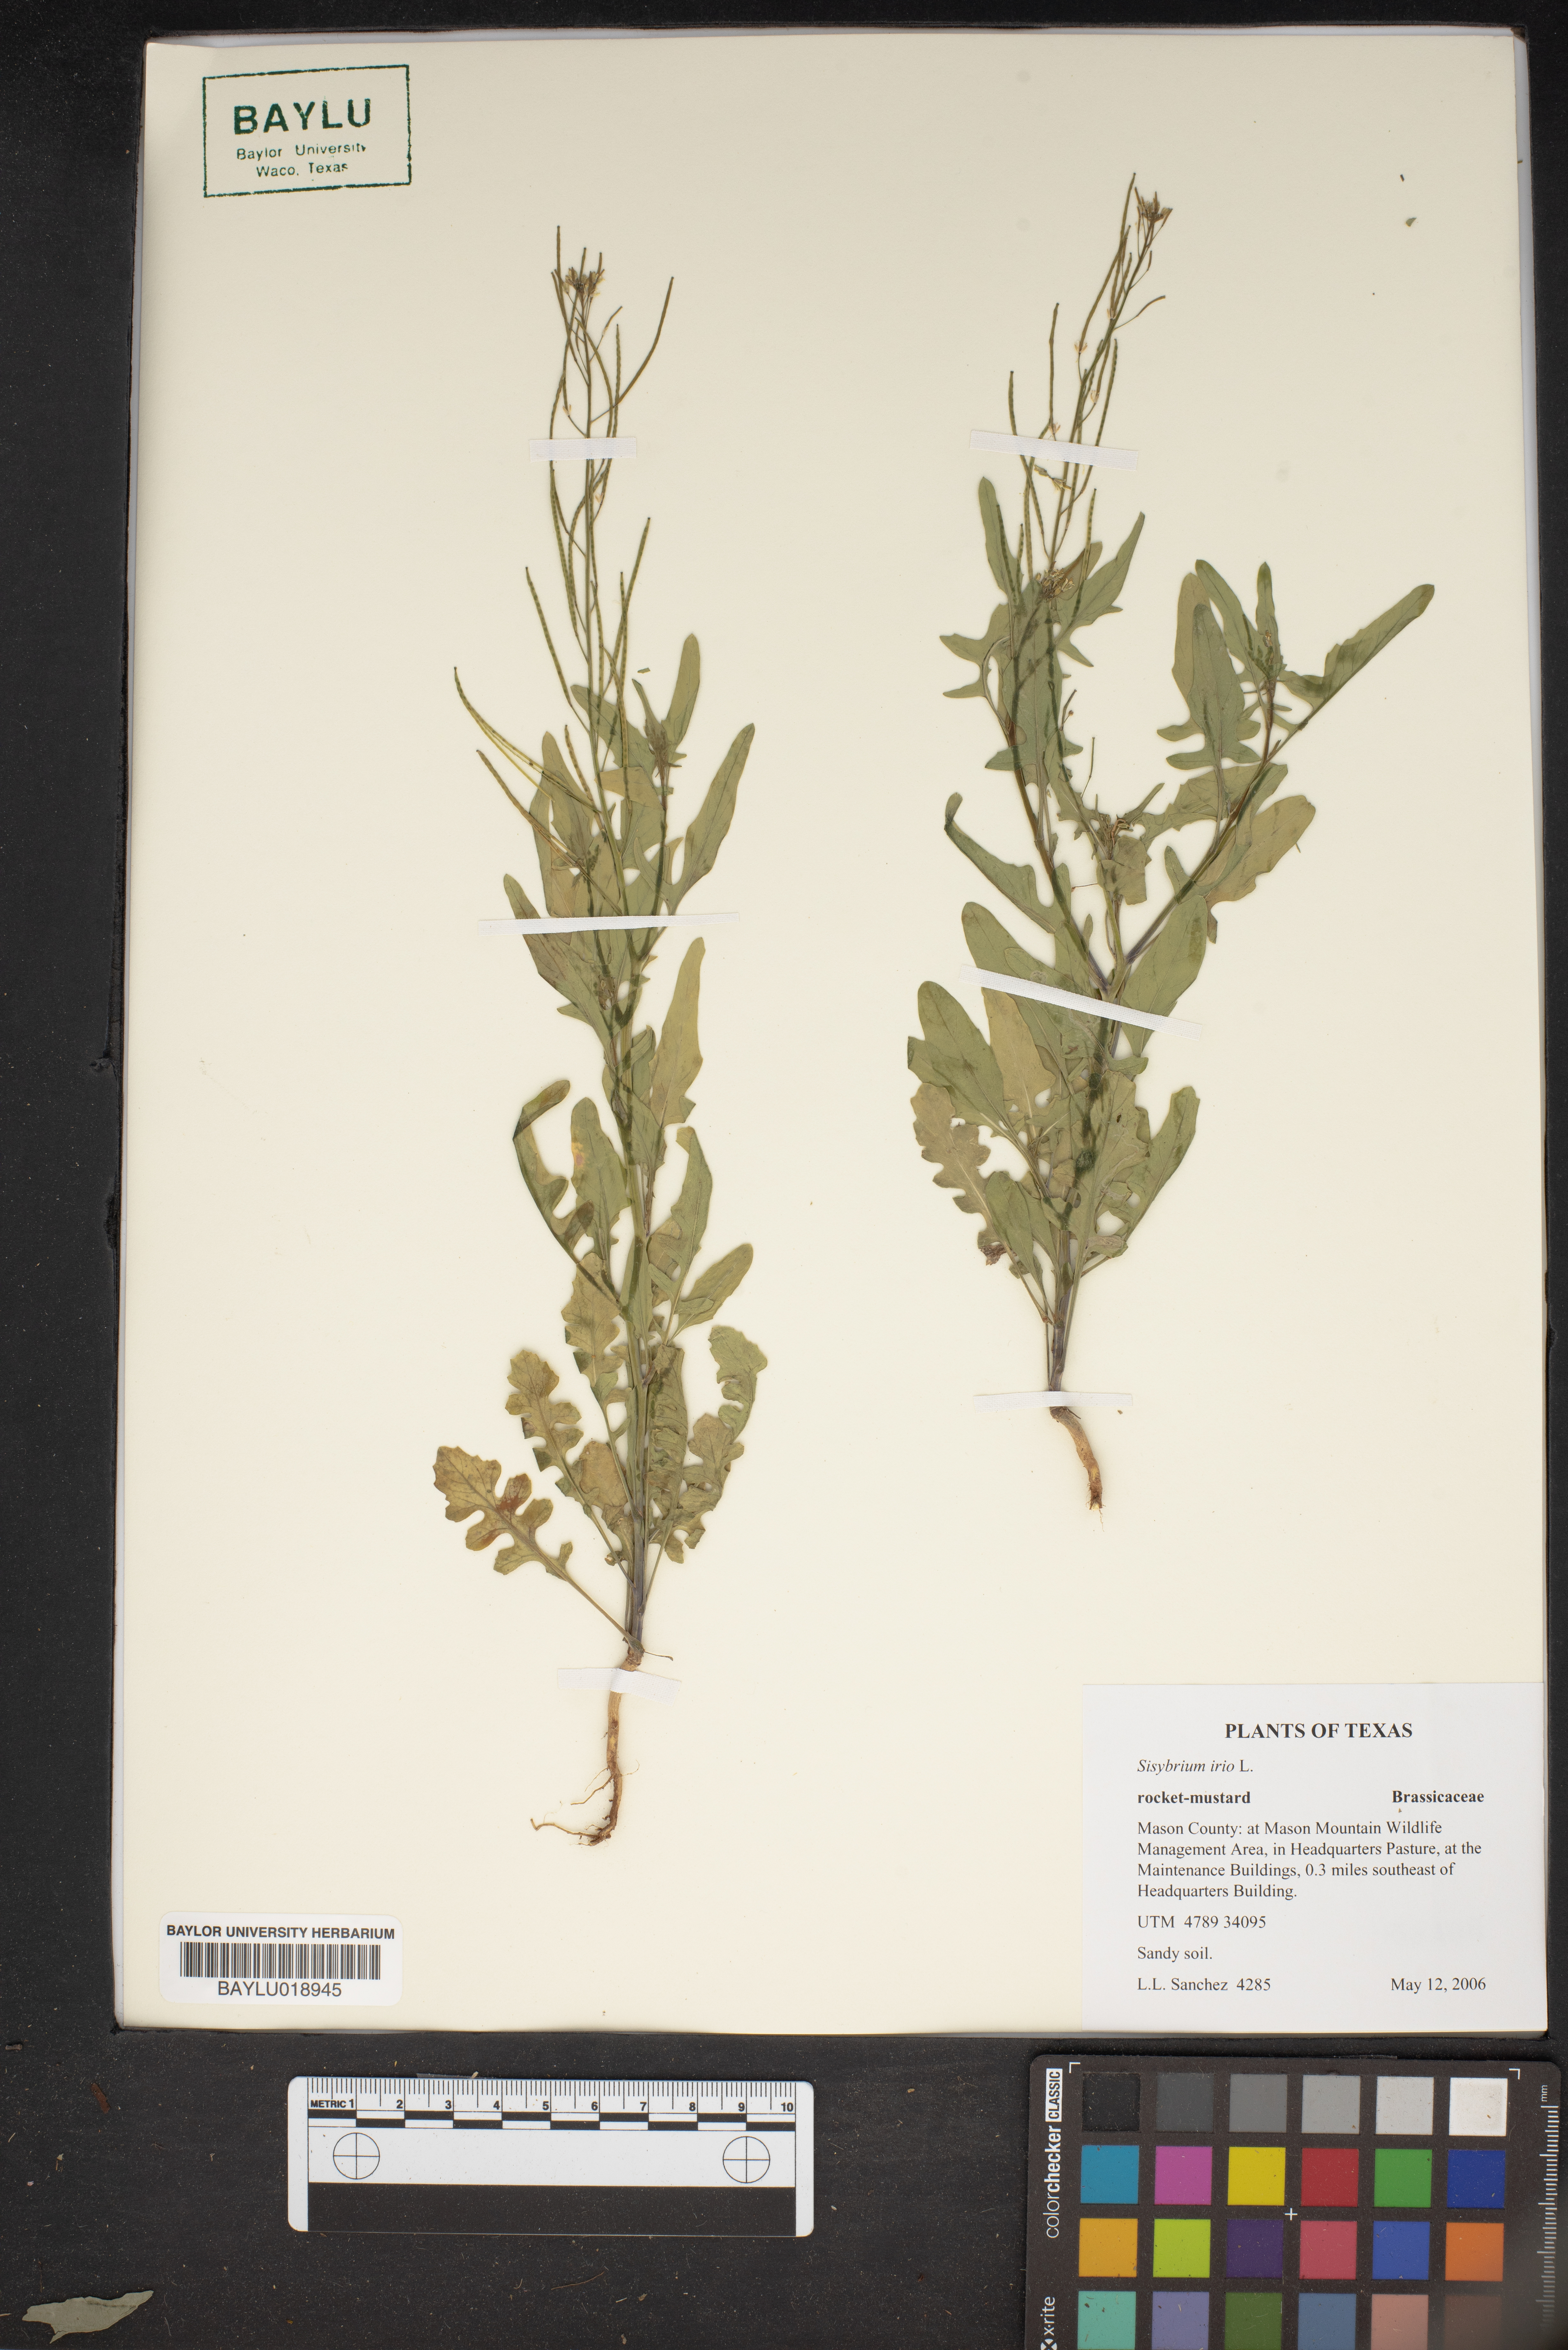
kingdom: Plantae
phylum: Tracheophyta
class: Magnoliopsida
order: Brassicales
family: Brassicaceae
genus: Sisymbrium
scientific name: Sisymbrium irio
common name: London rocket
